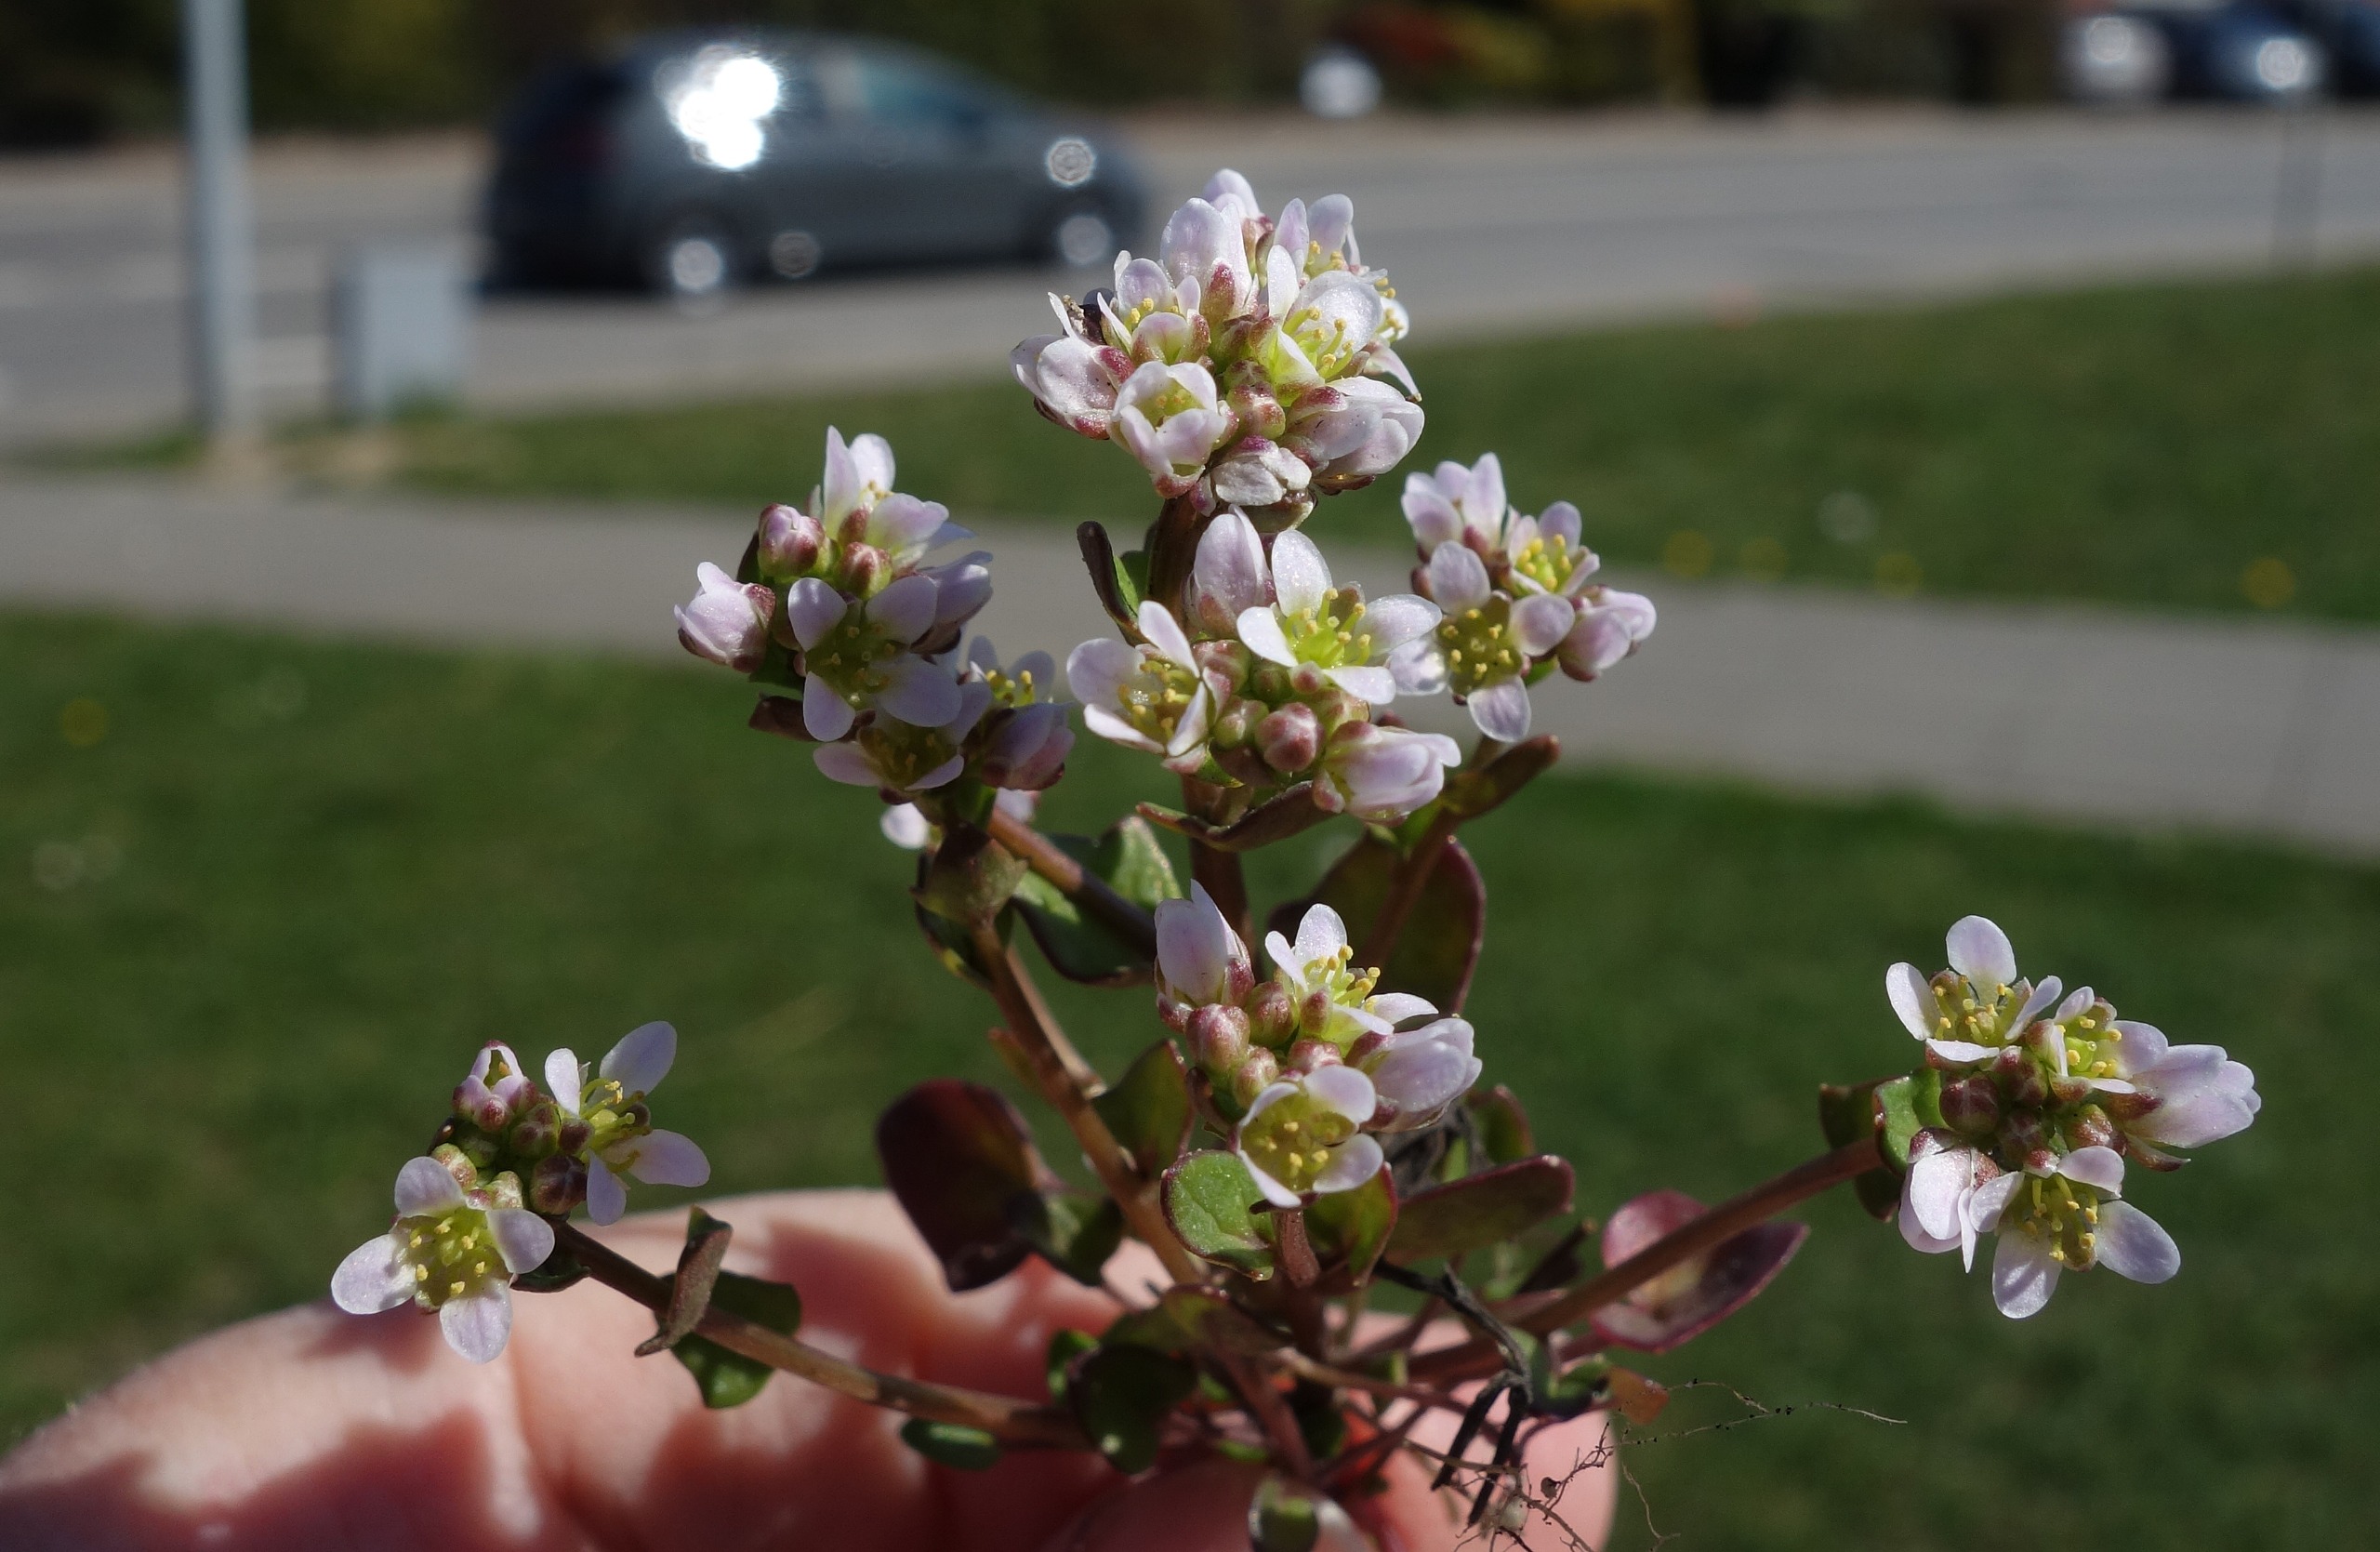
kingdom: Plantae
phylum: Tracheophyta
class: Magnoliopsida
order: Brassicales
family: Brassicaceae
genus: Cochlearia
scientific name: Cochlearia danica
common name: Dansk kokleare
